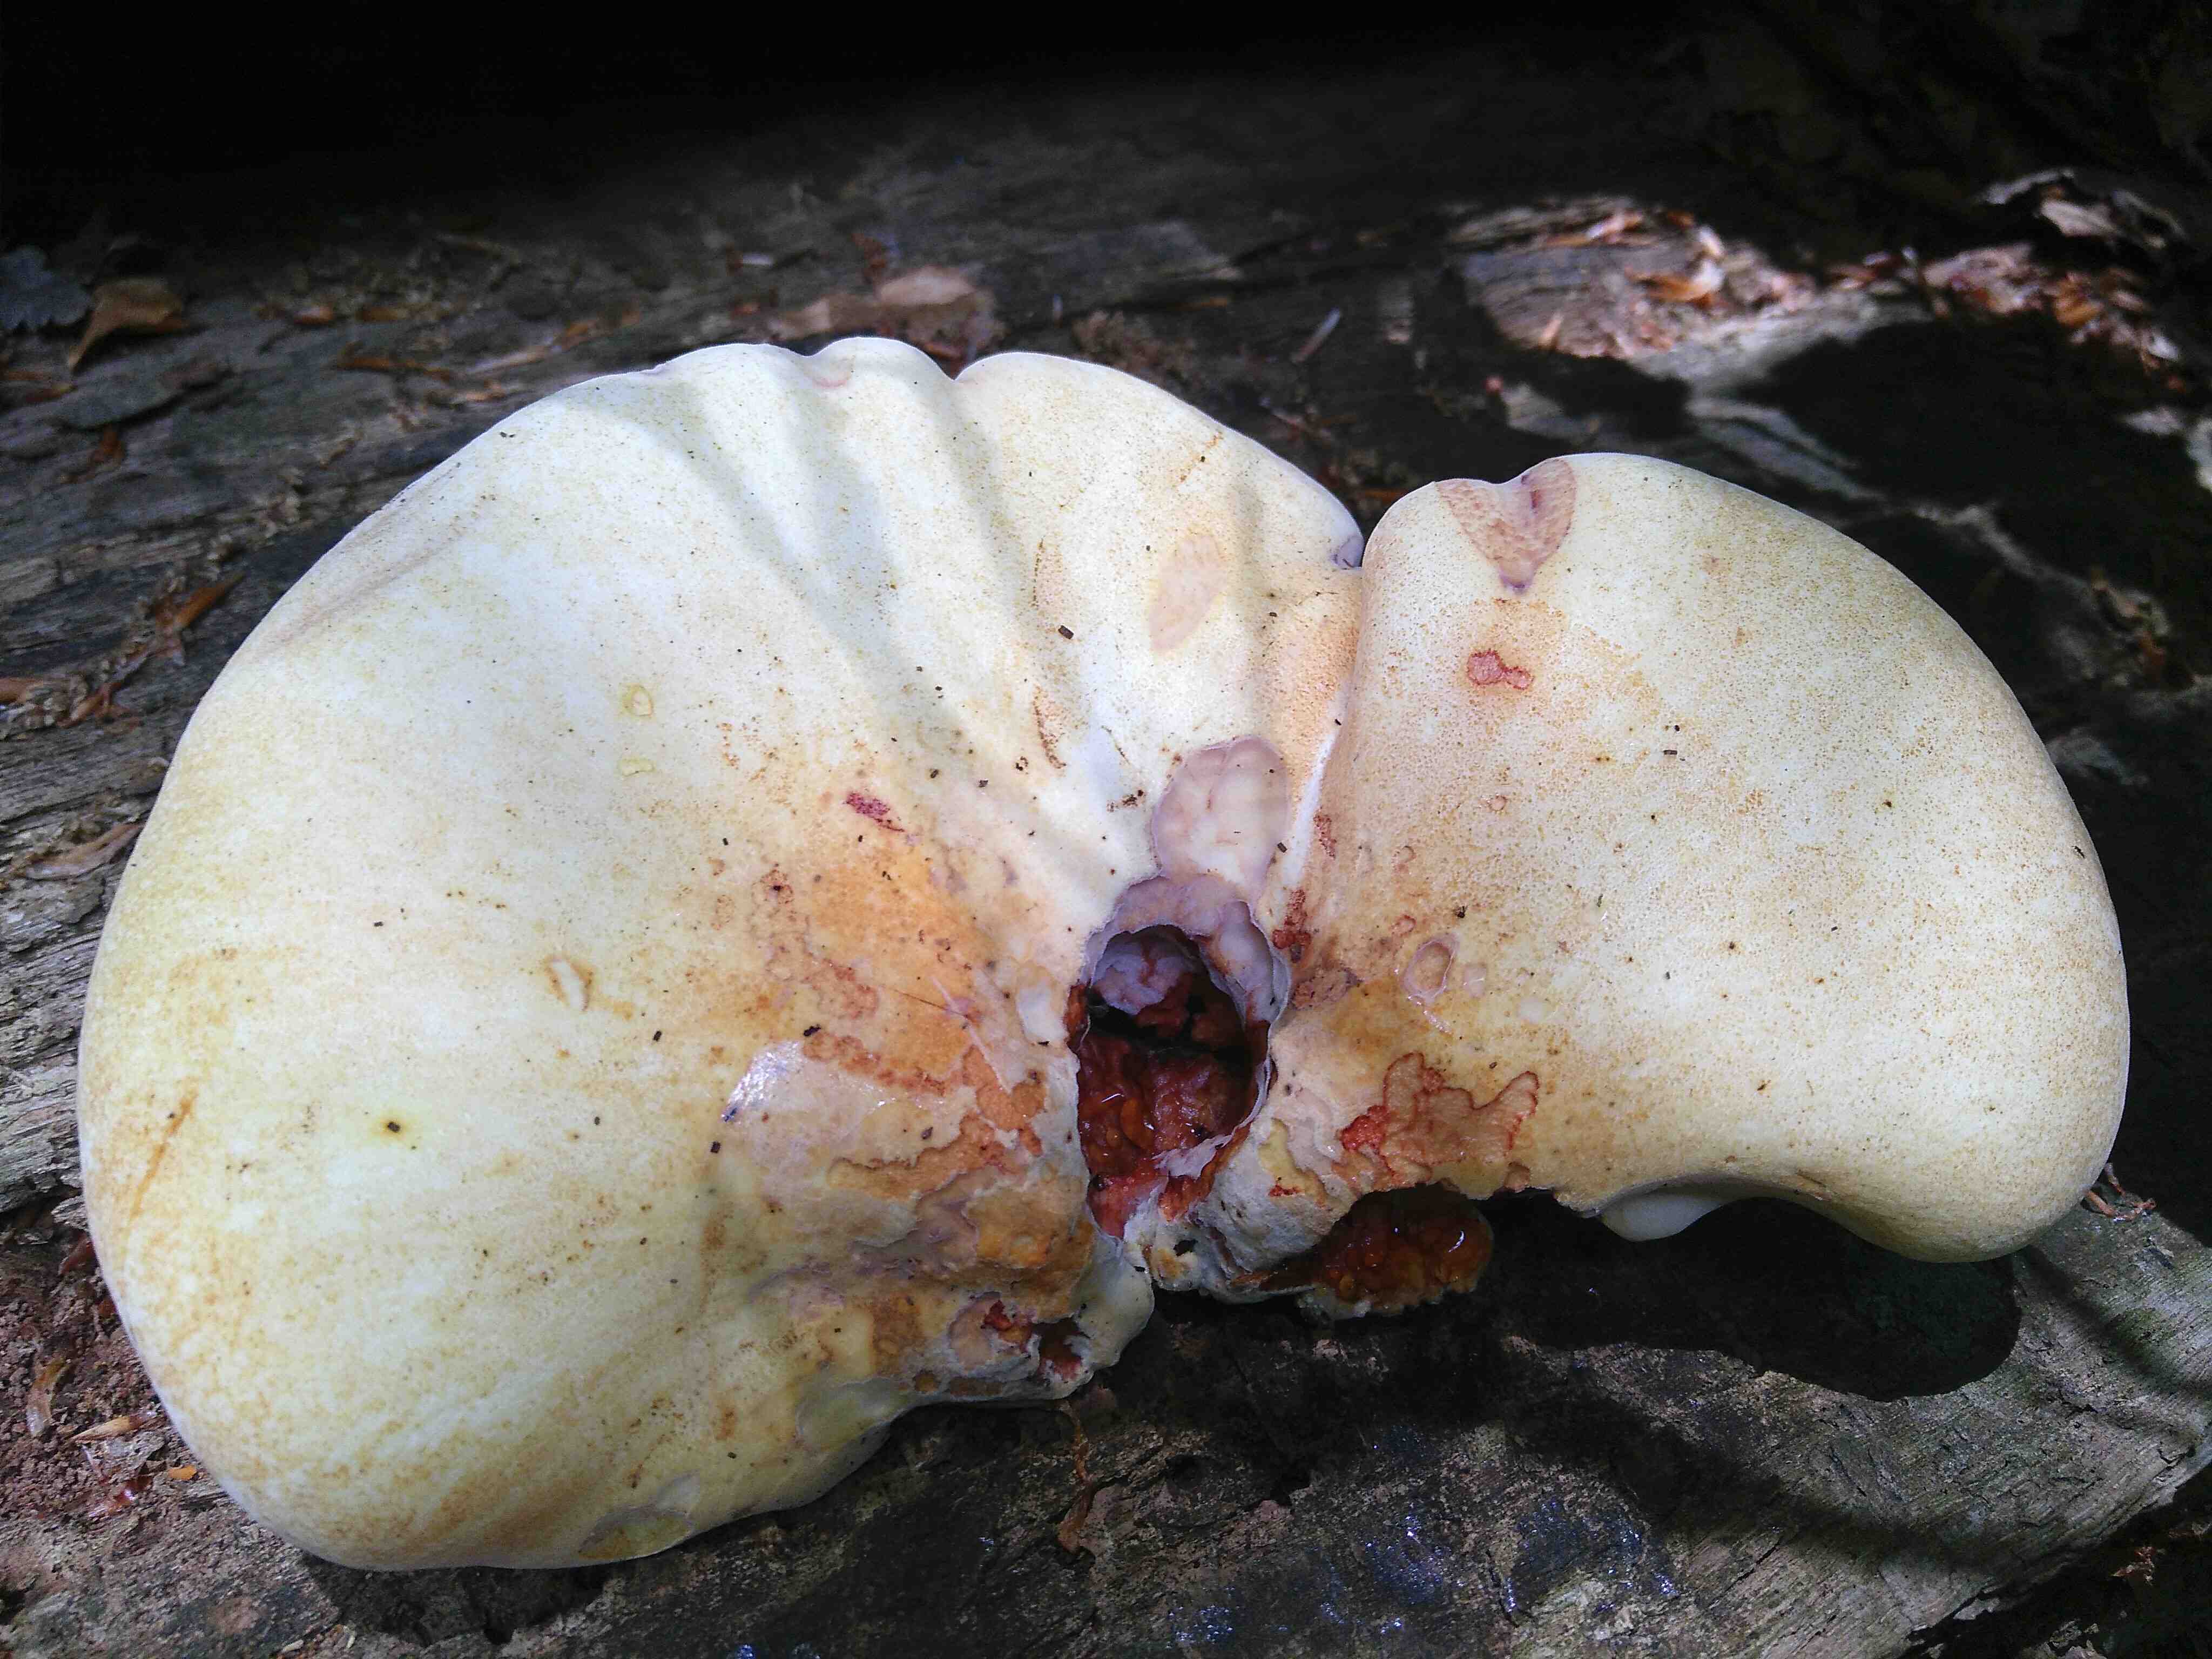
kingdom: Fungi
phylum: Basidiomycota
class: Agaricomycetes
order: Polyporales
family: Fomitopsidaceae
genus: Buglossoporus
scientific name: Buglossoporus quercinus
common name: egetunge
